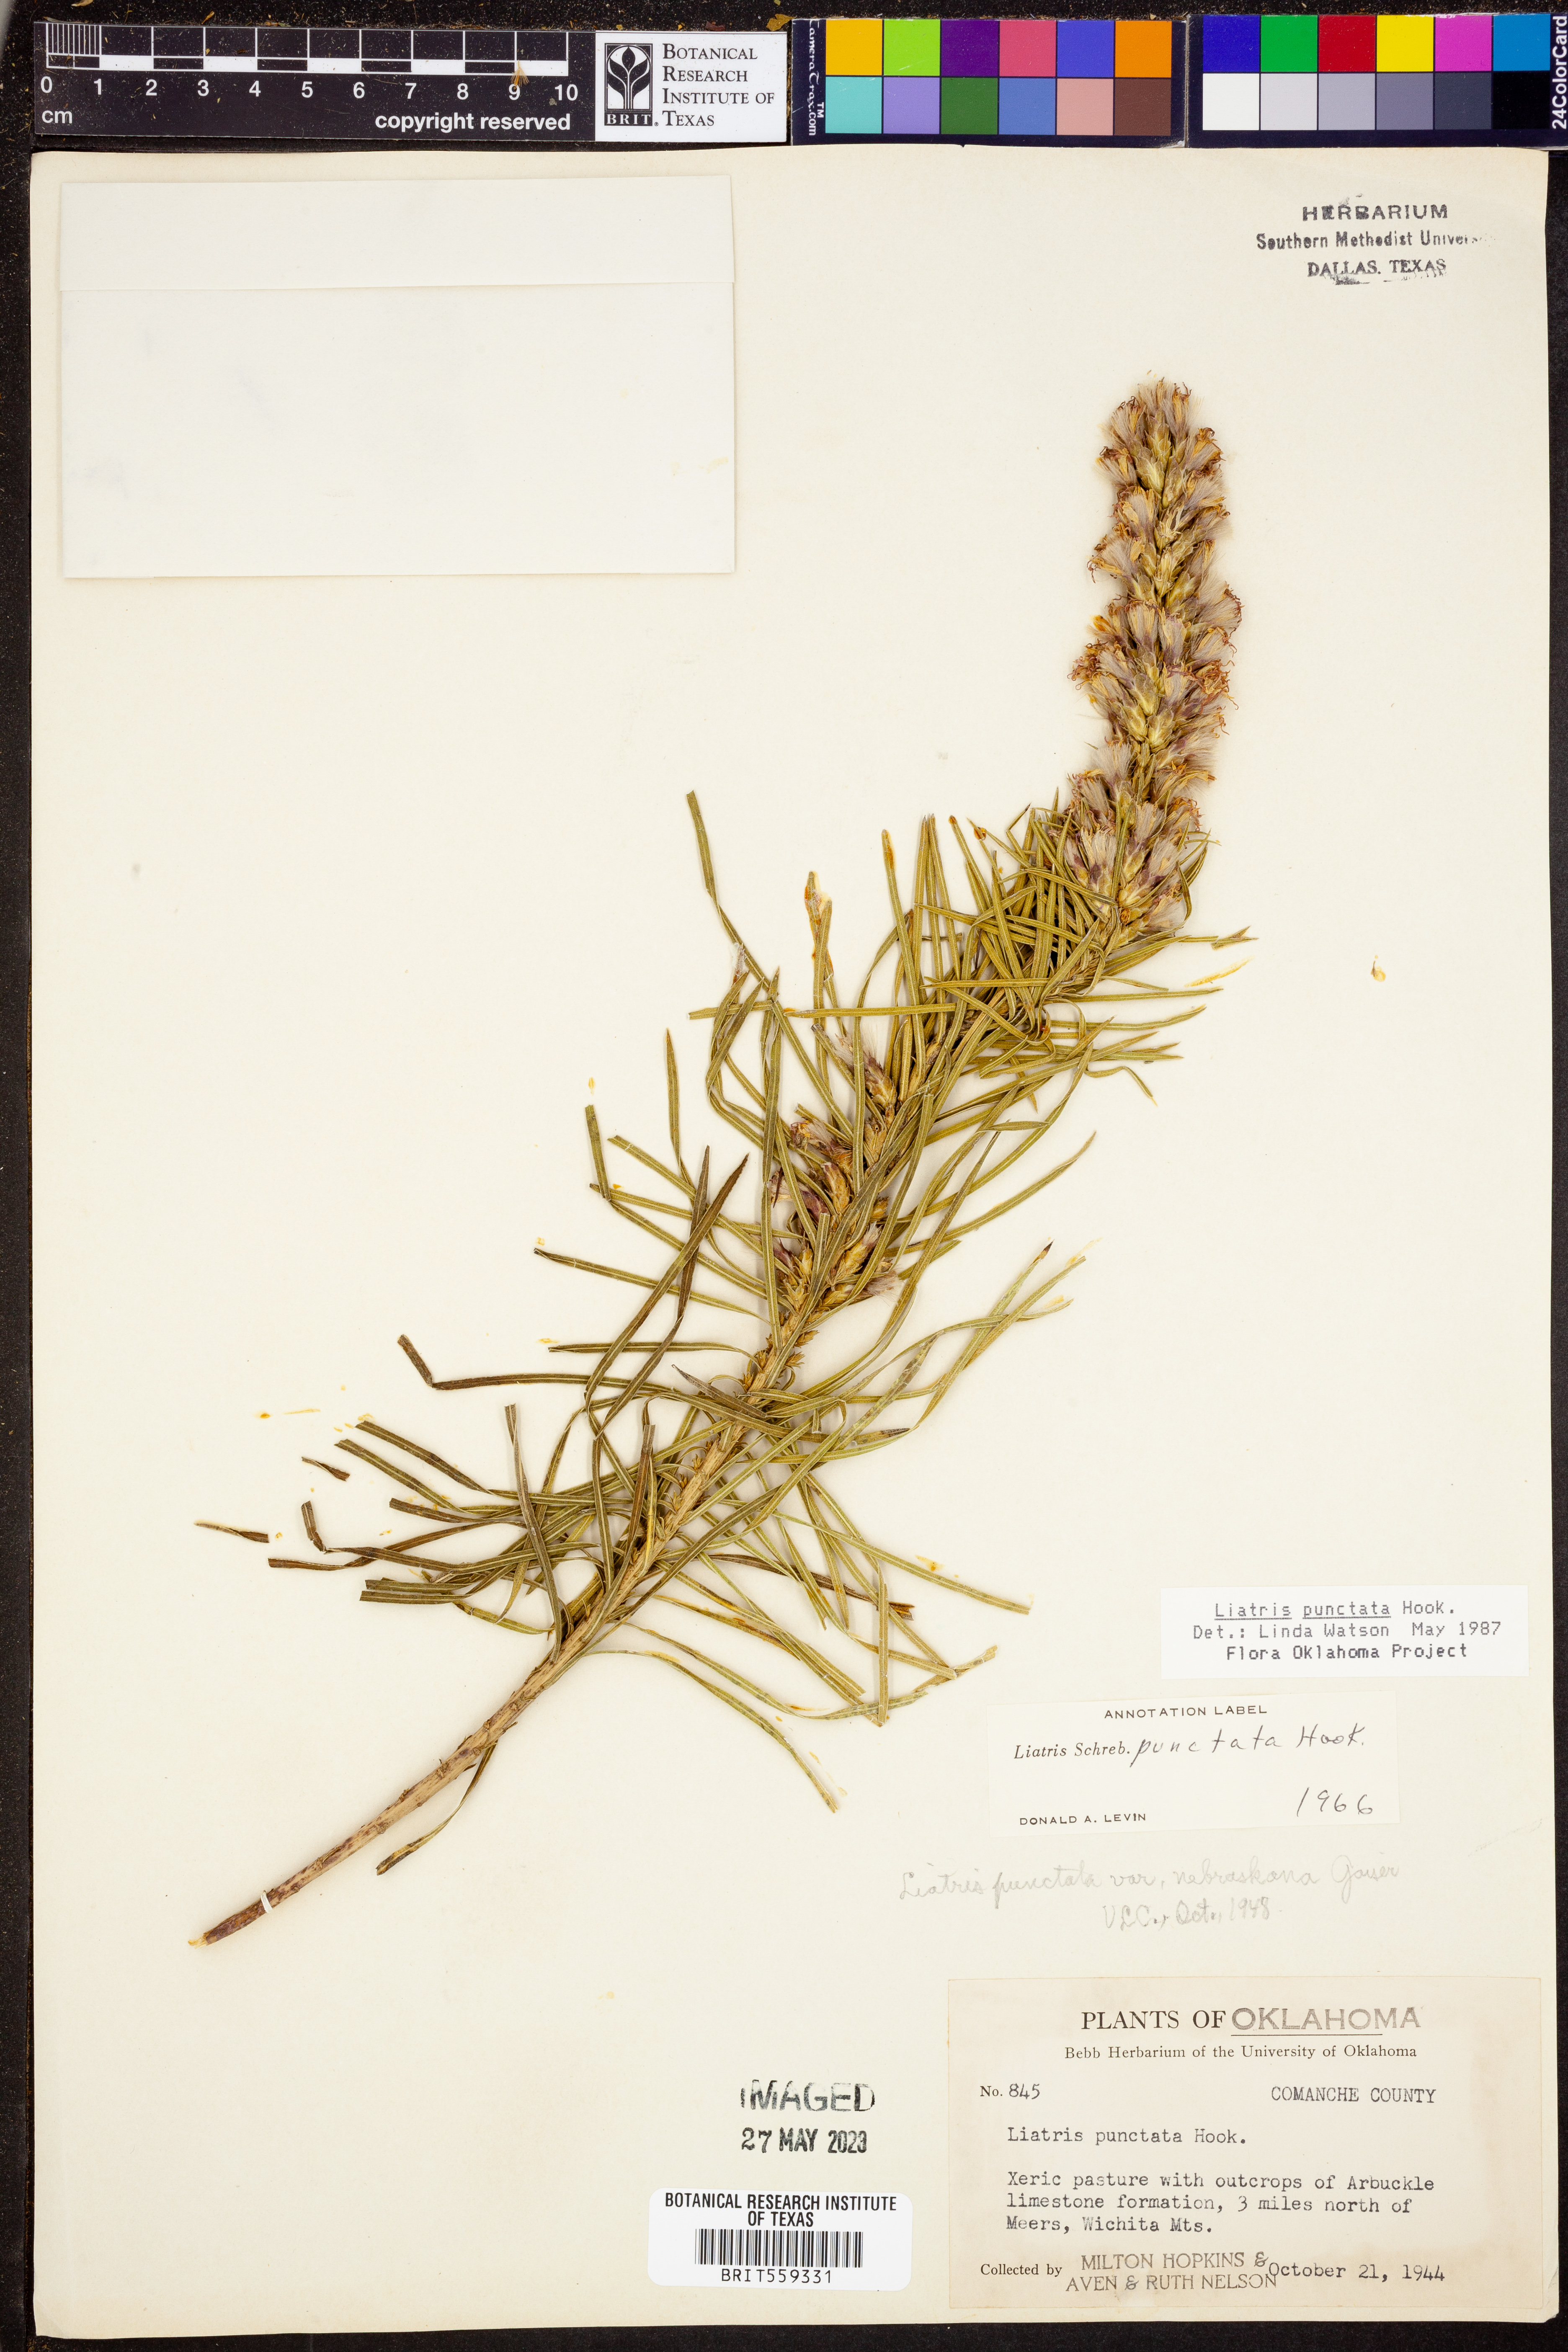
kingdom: Plantae
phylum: Tracheophyta
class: Magnoliopsida
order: Asterales
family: Asteraceae
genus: Liatris
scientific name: Liatris punctata
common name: Dotted gayfeather
